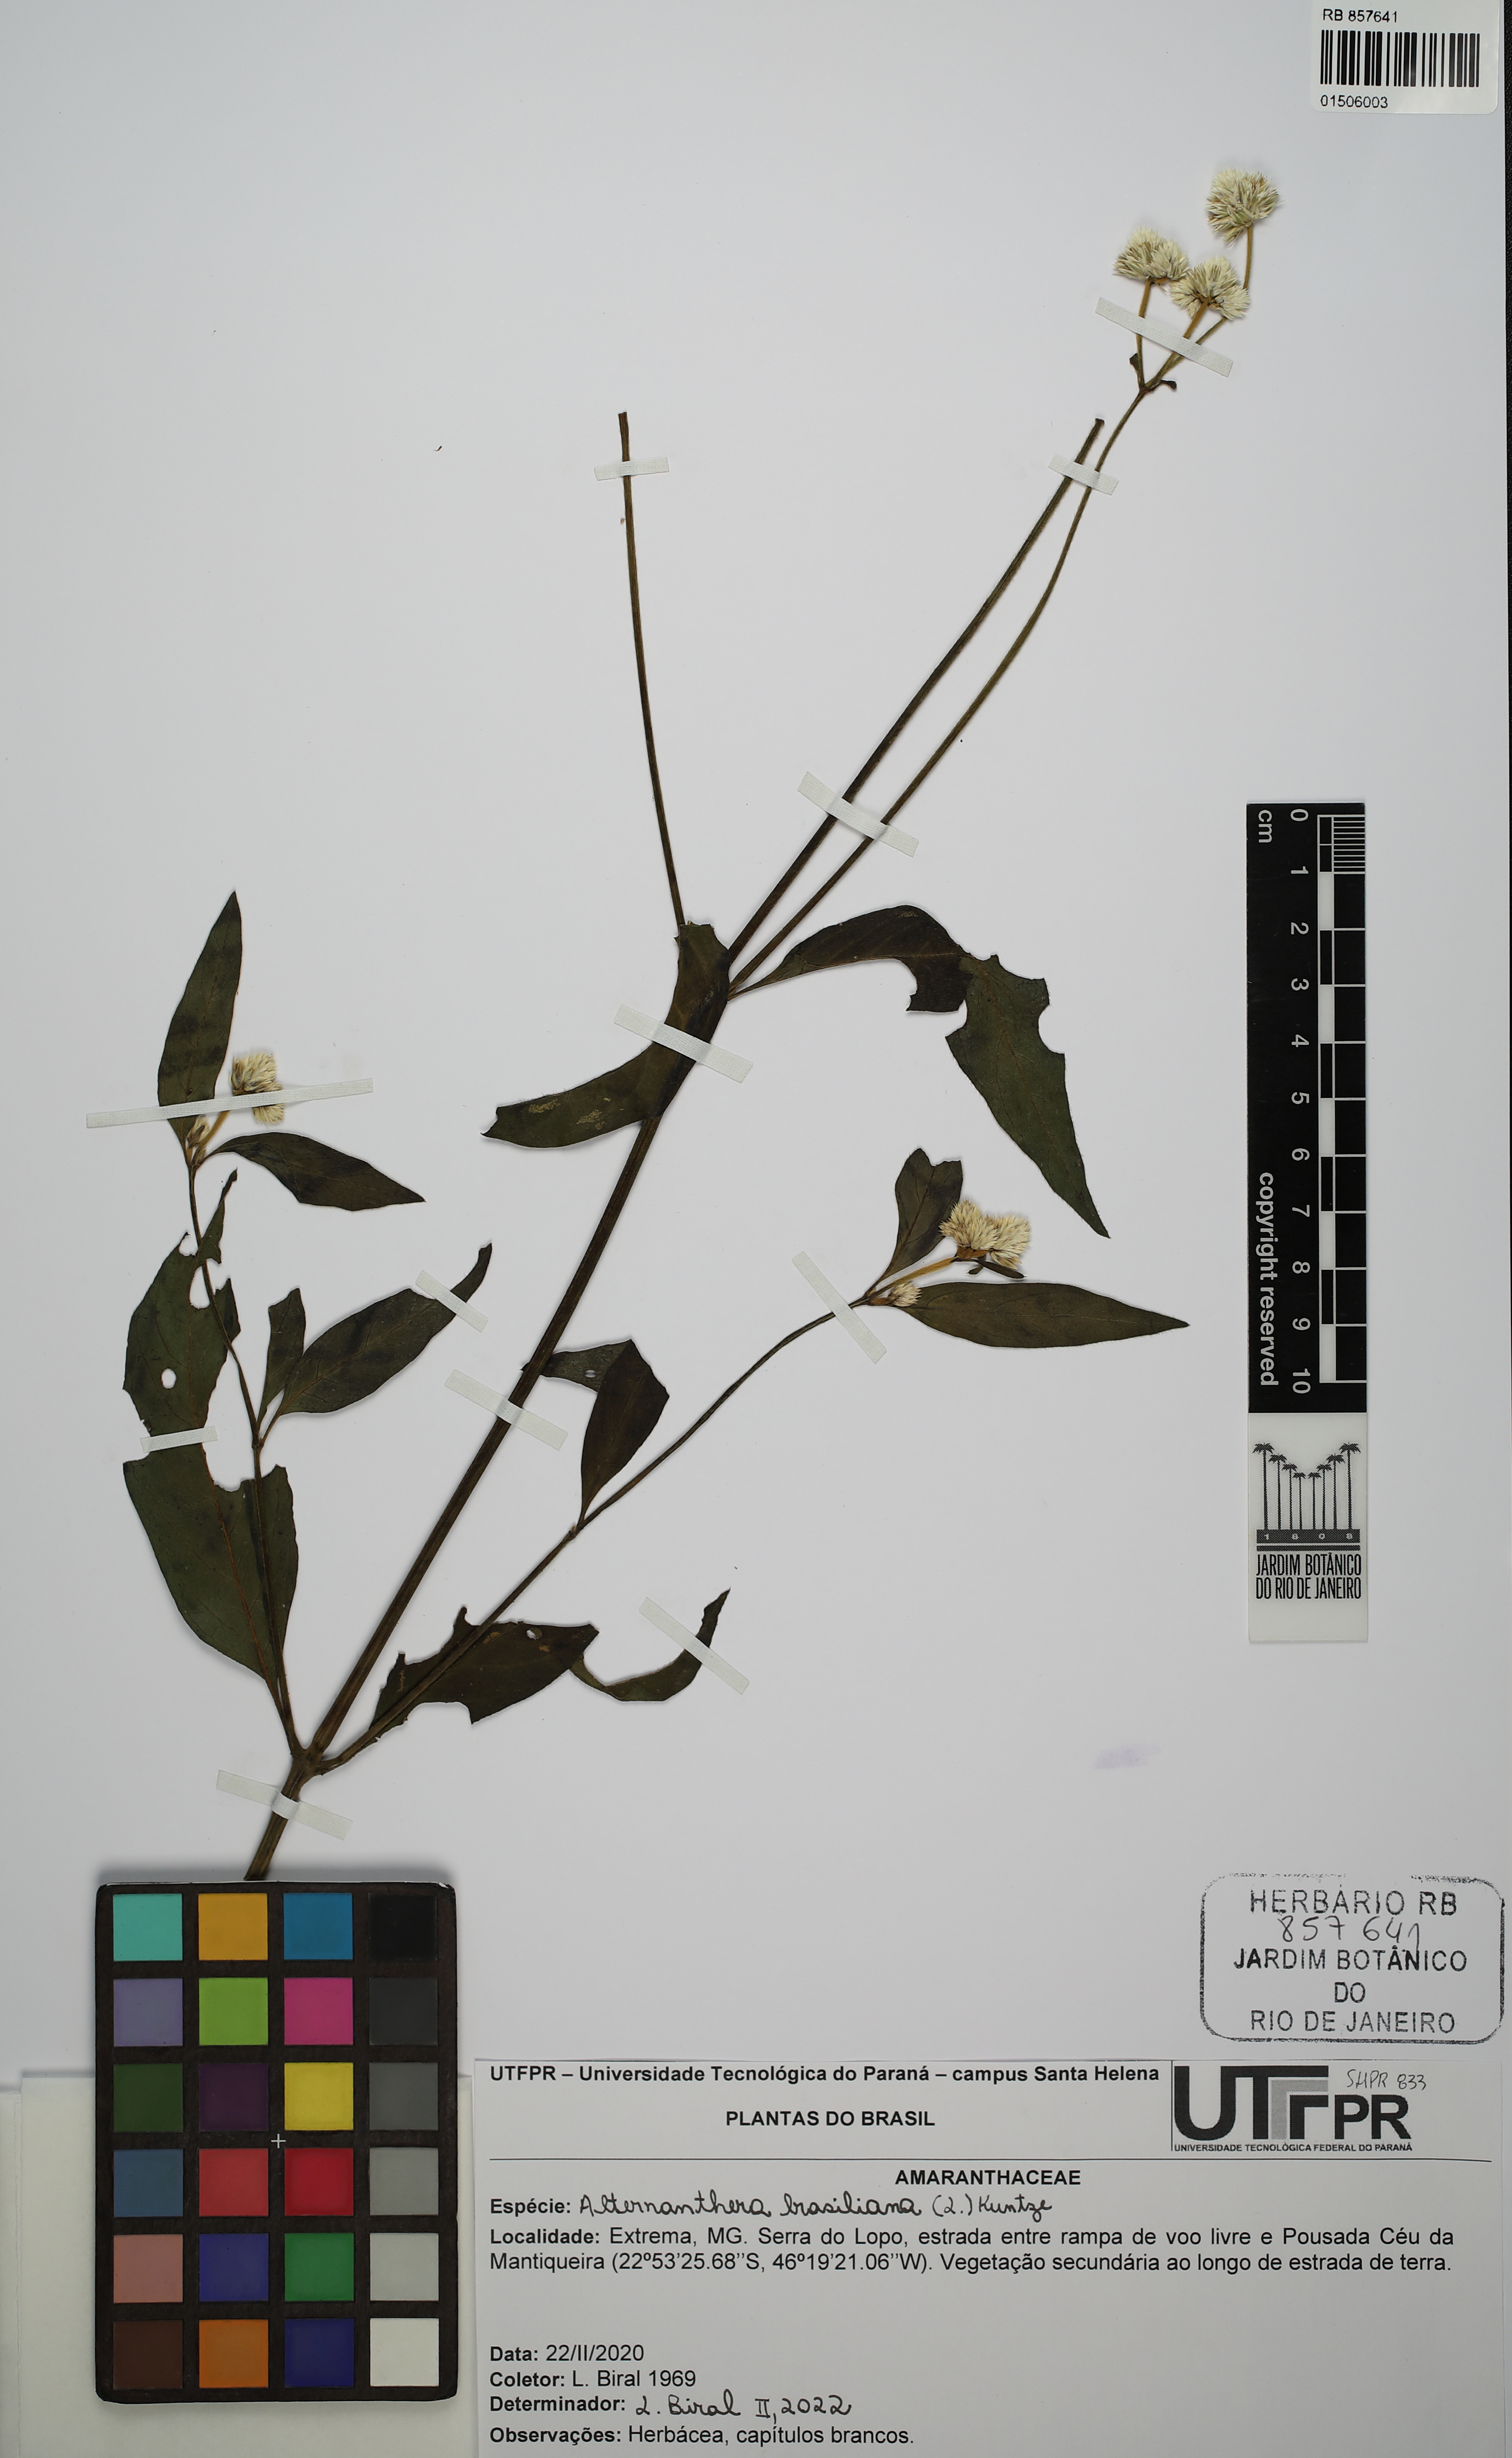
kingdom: Plantae
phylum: Tracheophyta
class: Magnoliopsida
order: Caryophyllales
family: Amaranthaceae
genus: Alternanthera
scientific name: Alternanthera brasiliana
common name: Brazilian joyweed
